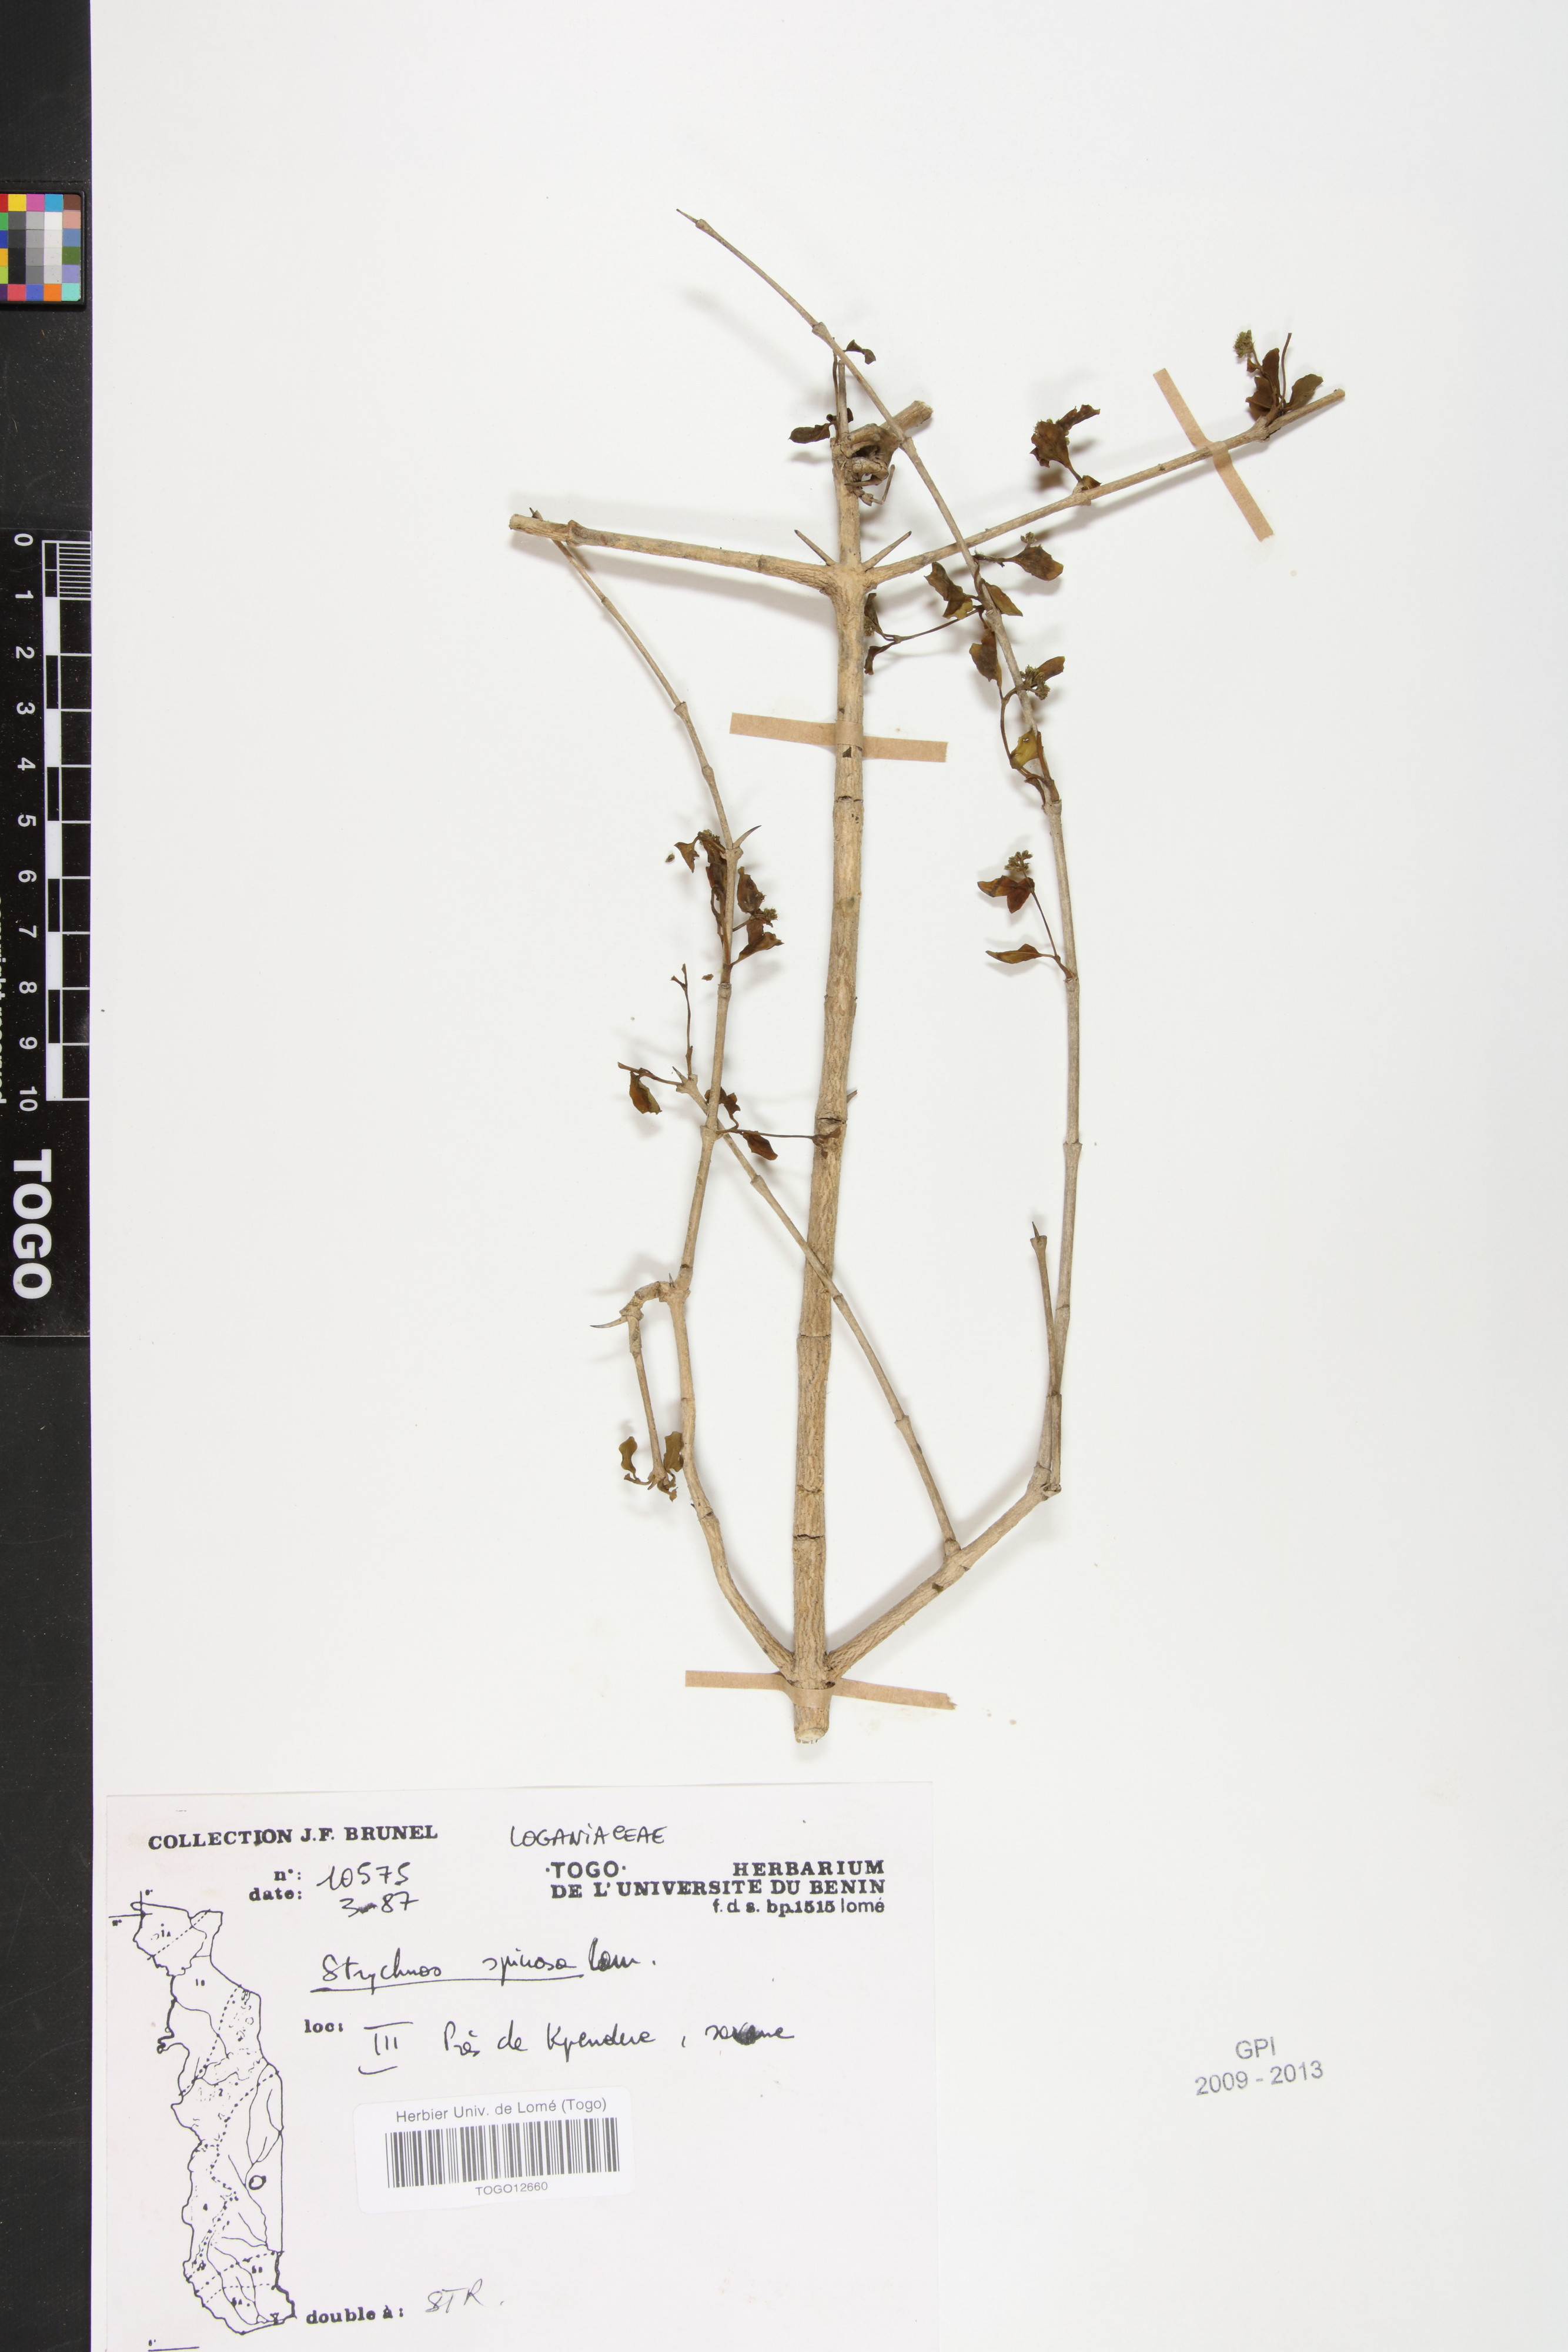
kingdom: Plantae
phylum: Tracheophyta
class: Magnoliopsida
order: Gentianales
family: Loganiaceae
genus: Strychnos
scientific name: Strychnos spinosa
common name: Natal orange
